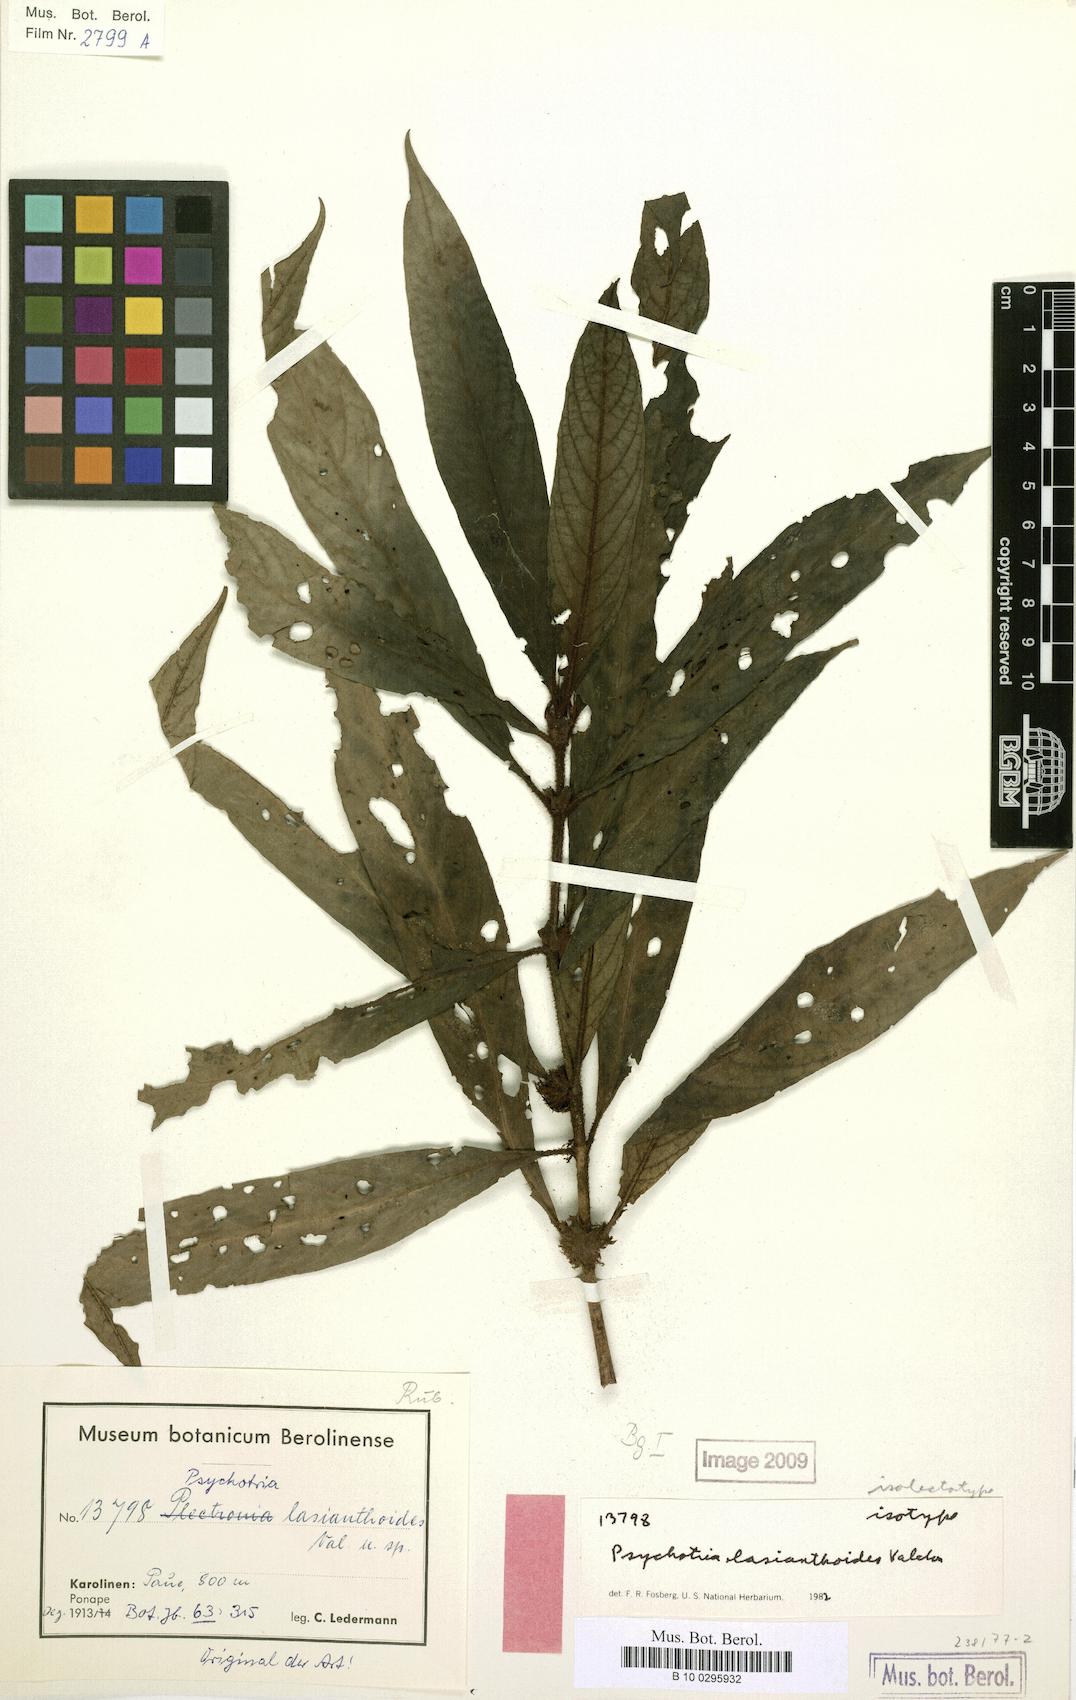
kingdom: Plantae
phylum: Tracheophyta
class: Magnoliopsida
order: Gentianales
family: Rubiaceae
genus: Psychotria
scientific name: Psychotria lasianthoides
